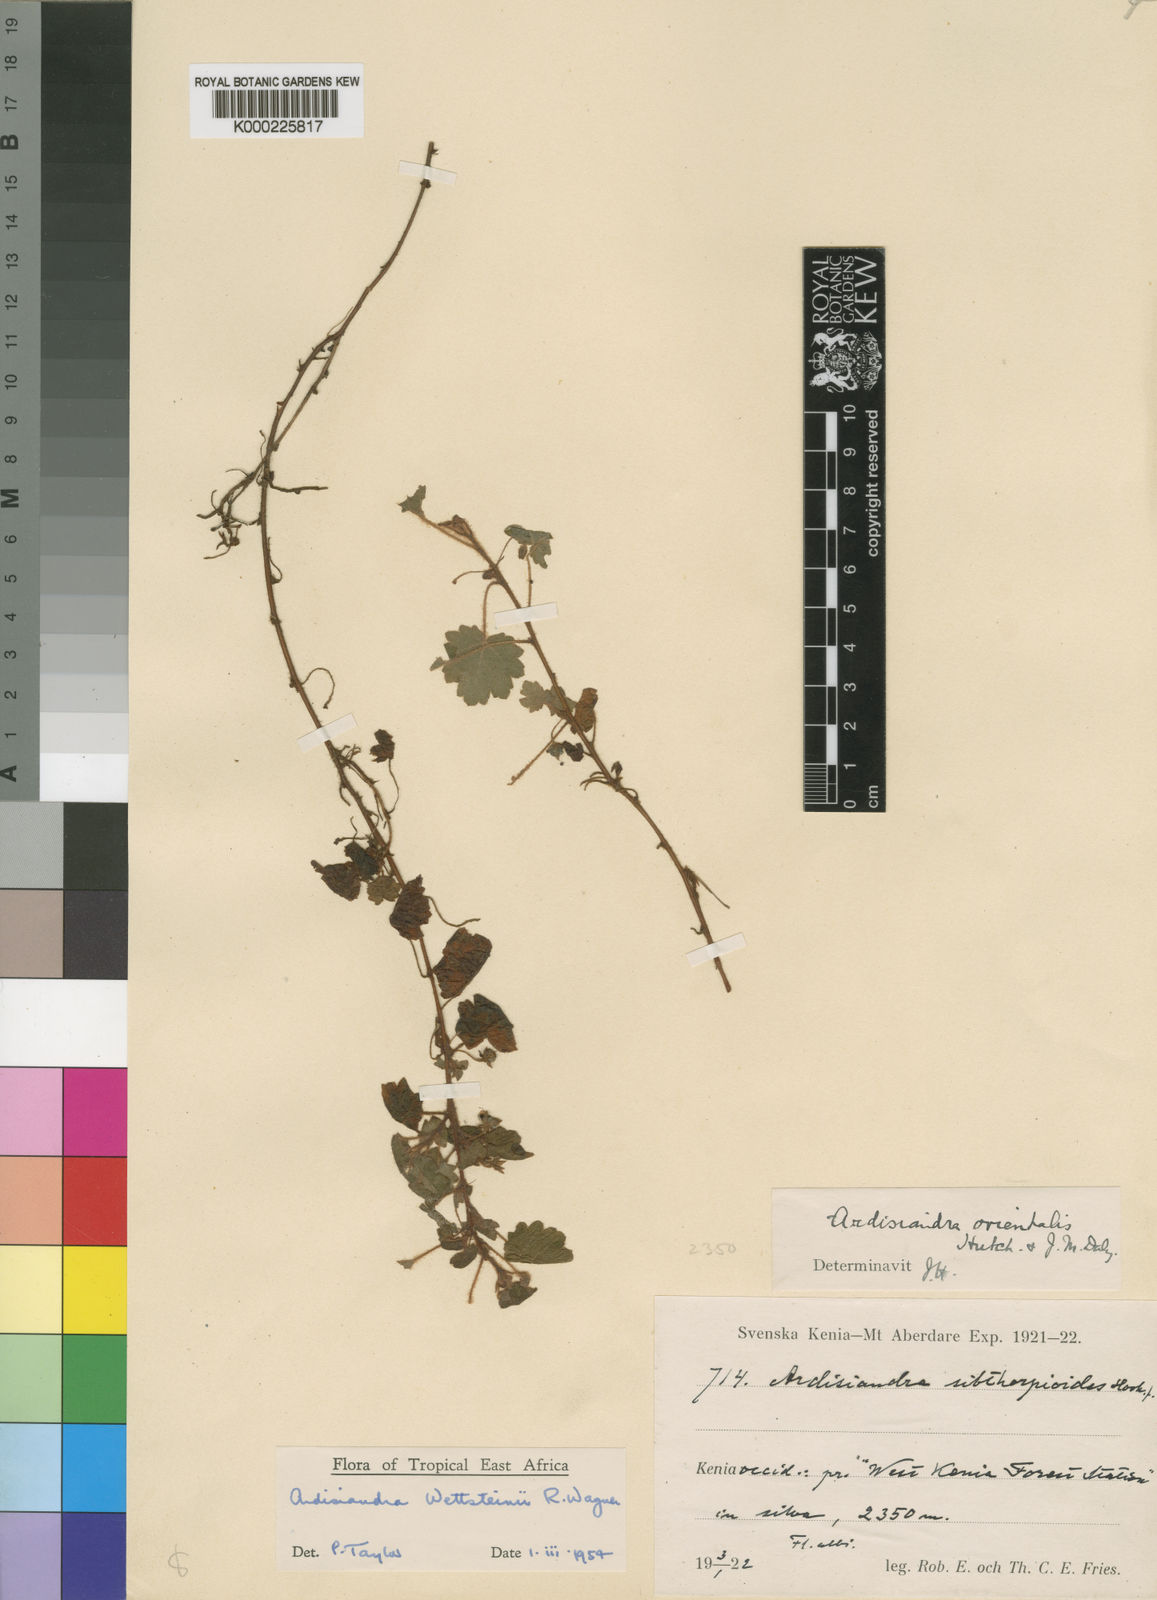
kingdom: Plantae
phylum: Tracheophyta
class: Magnoliopsida
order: Ericales
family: Primulaceae
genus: Ardisiandra
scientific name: Ardisiandra wettsteinii
